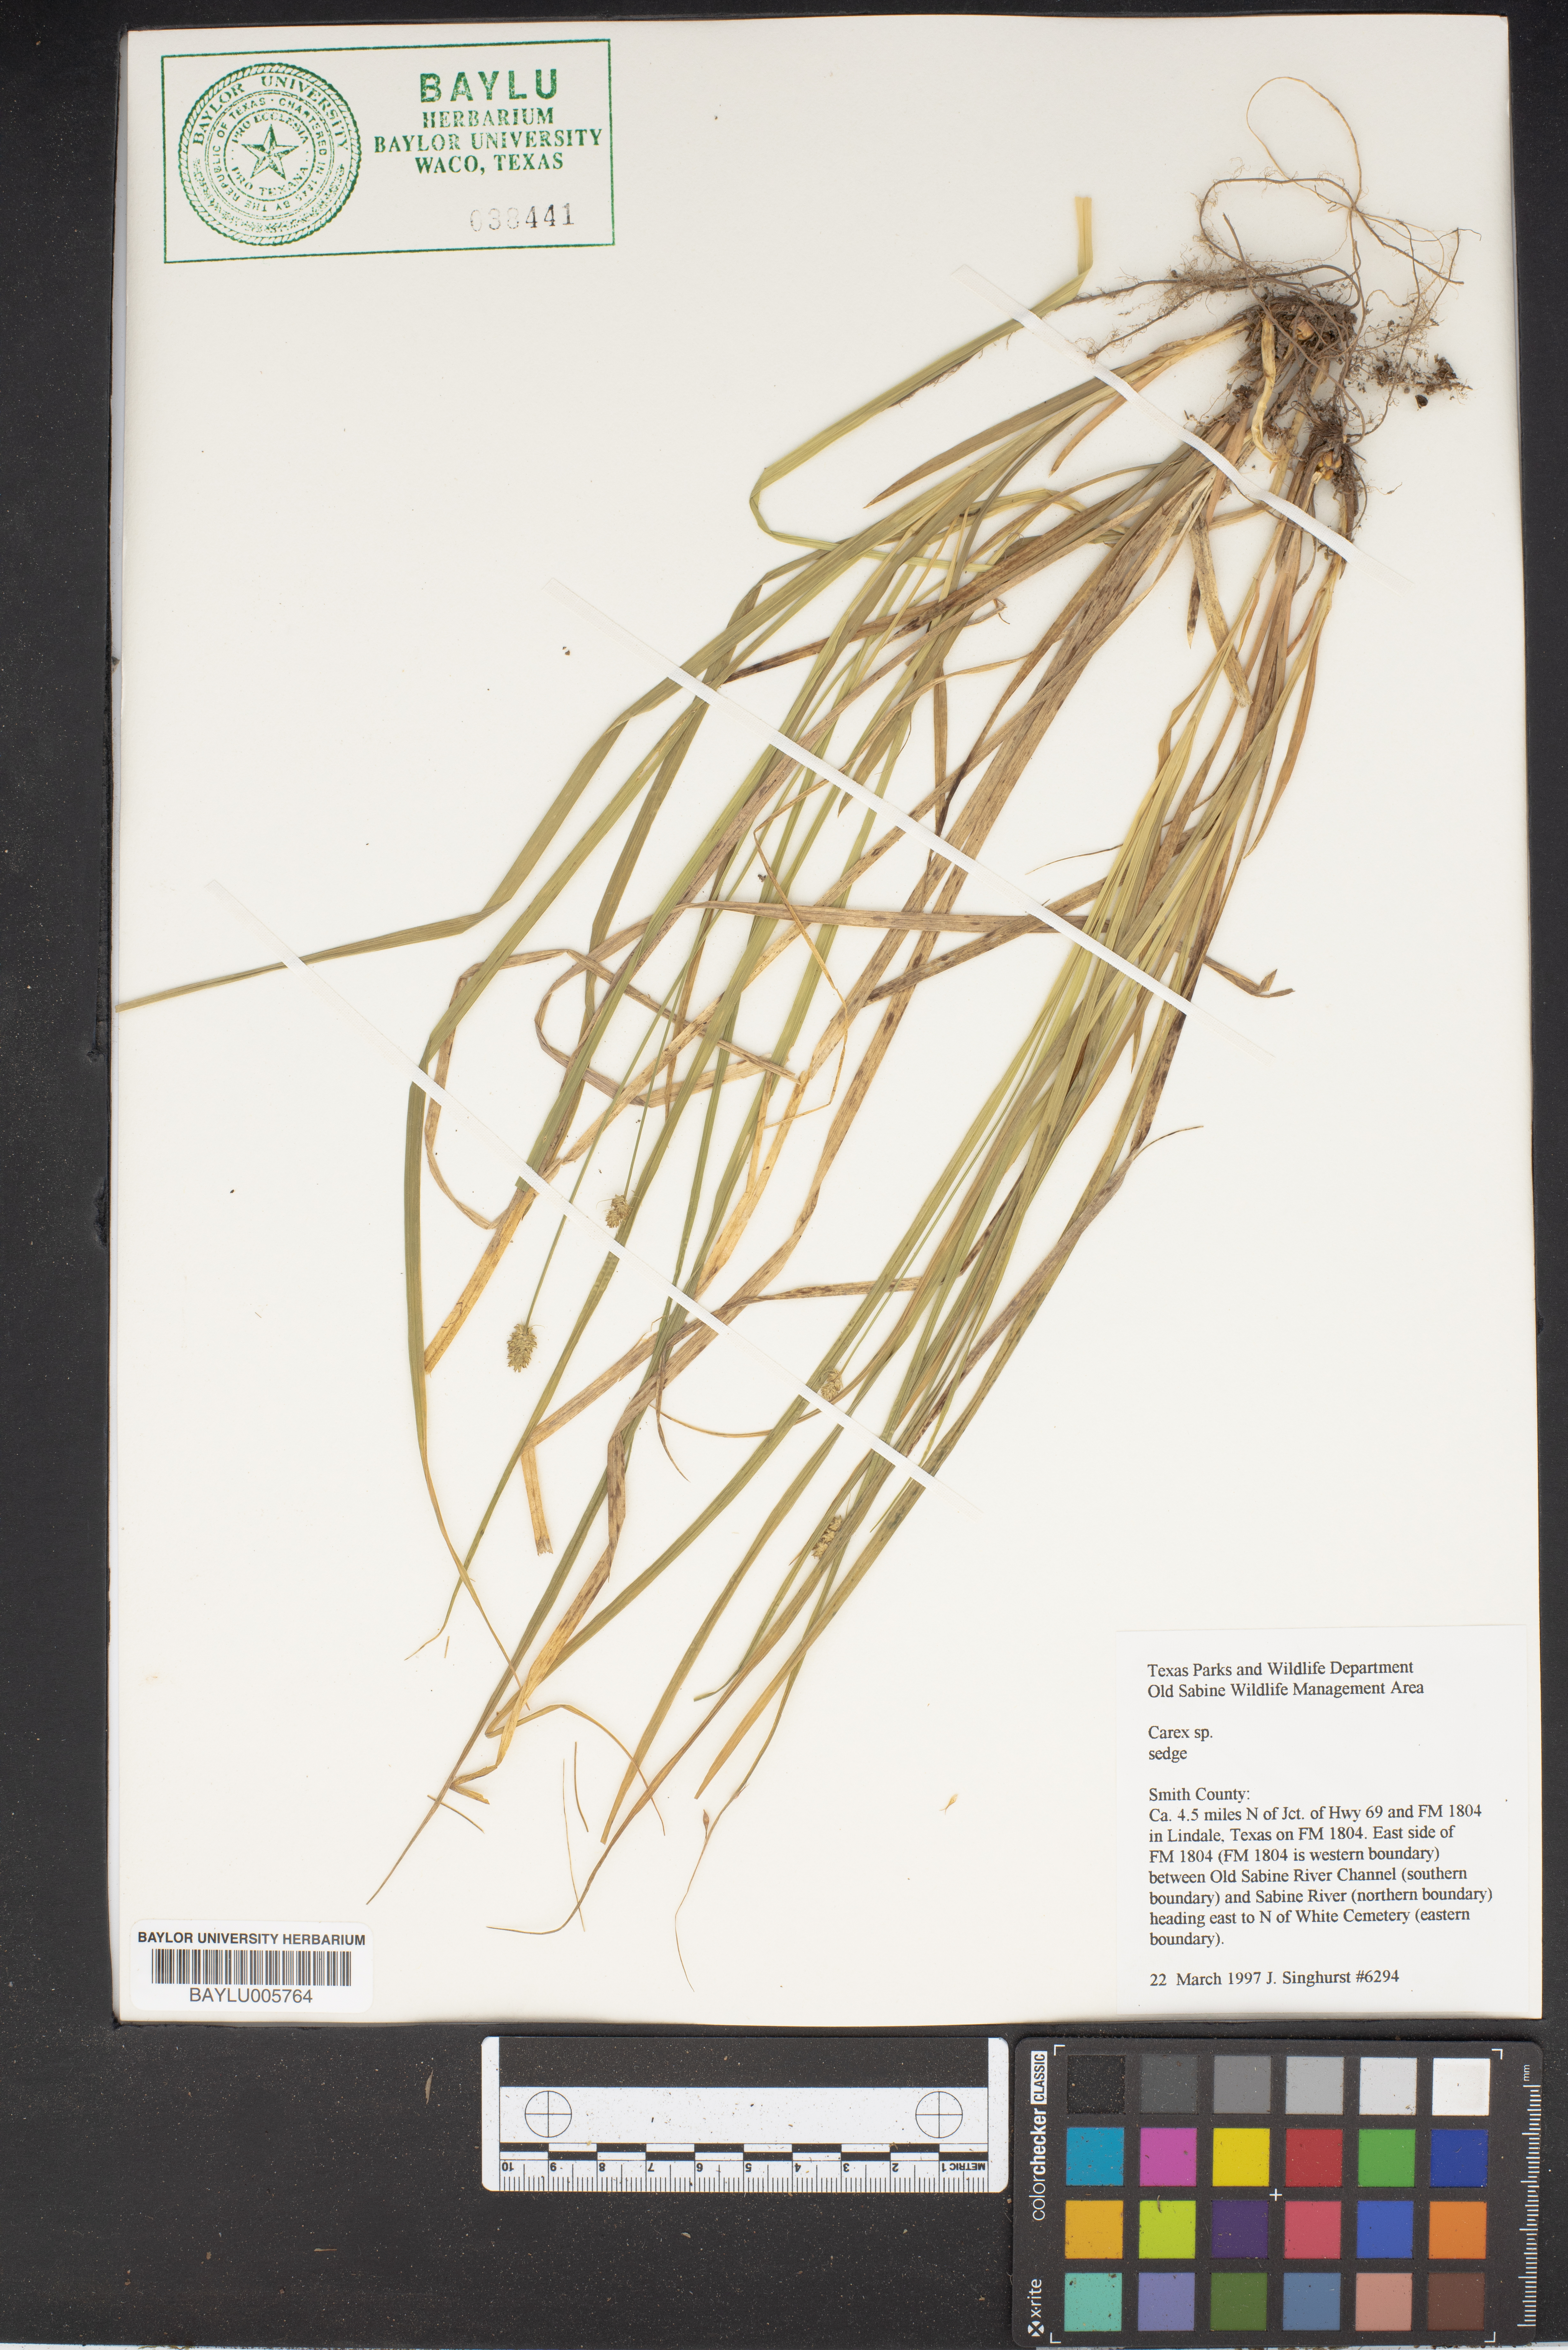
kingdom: Plantae
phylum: Tracheophyta
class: Liliopsida
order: Poales
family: Cyperaceae
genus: Carex
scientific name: Carex sparganioides
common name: Burreed sedge
